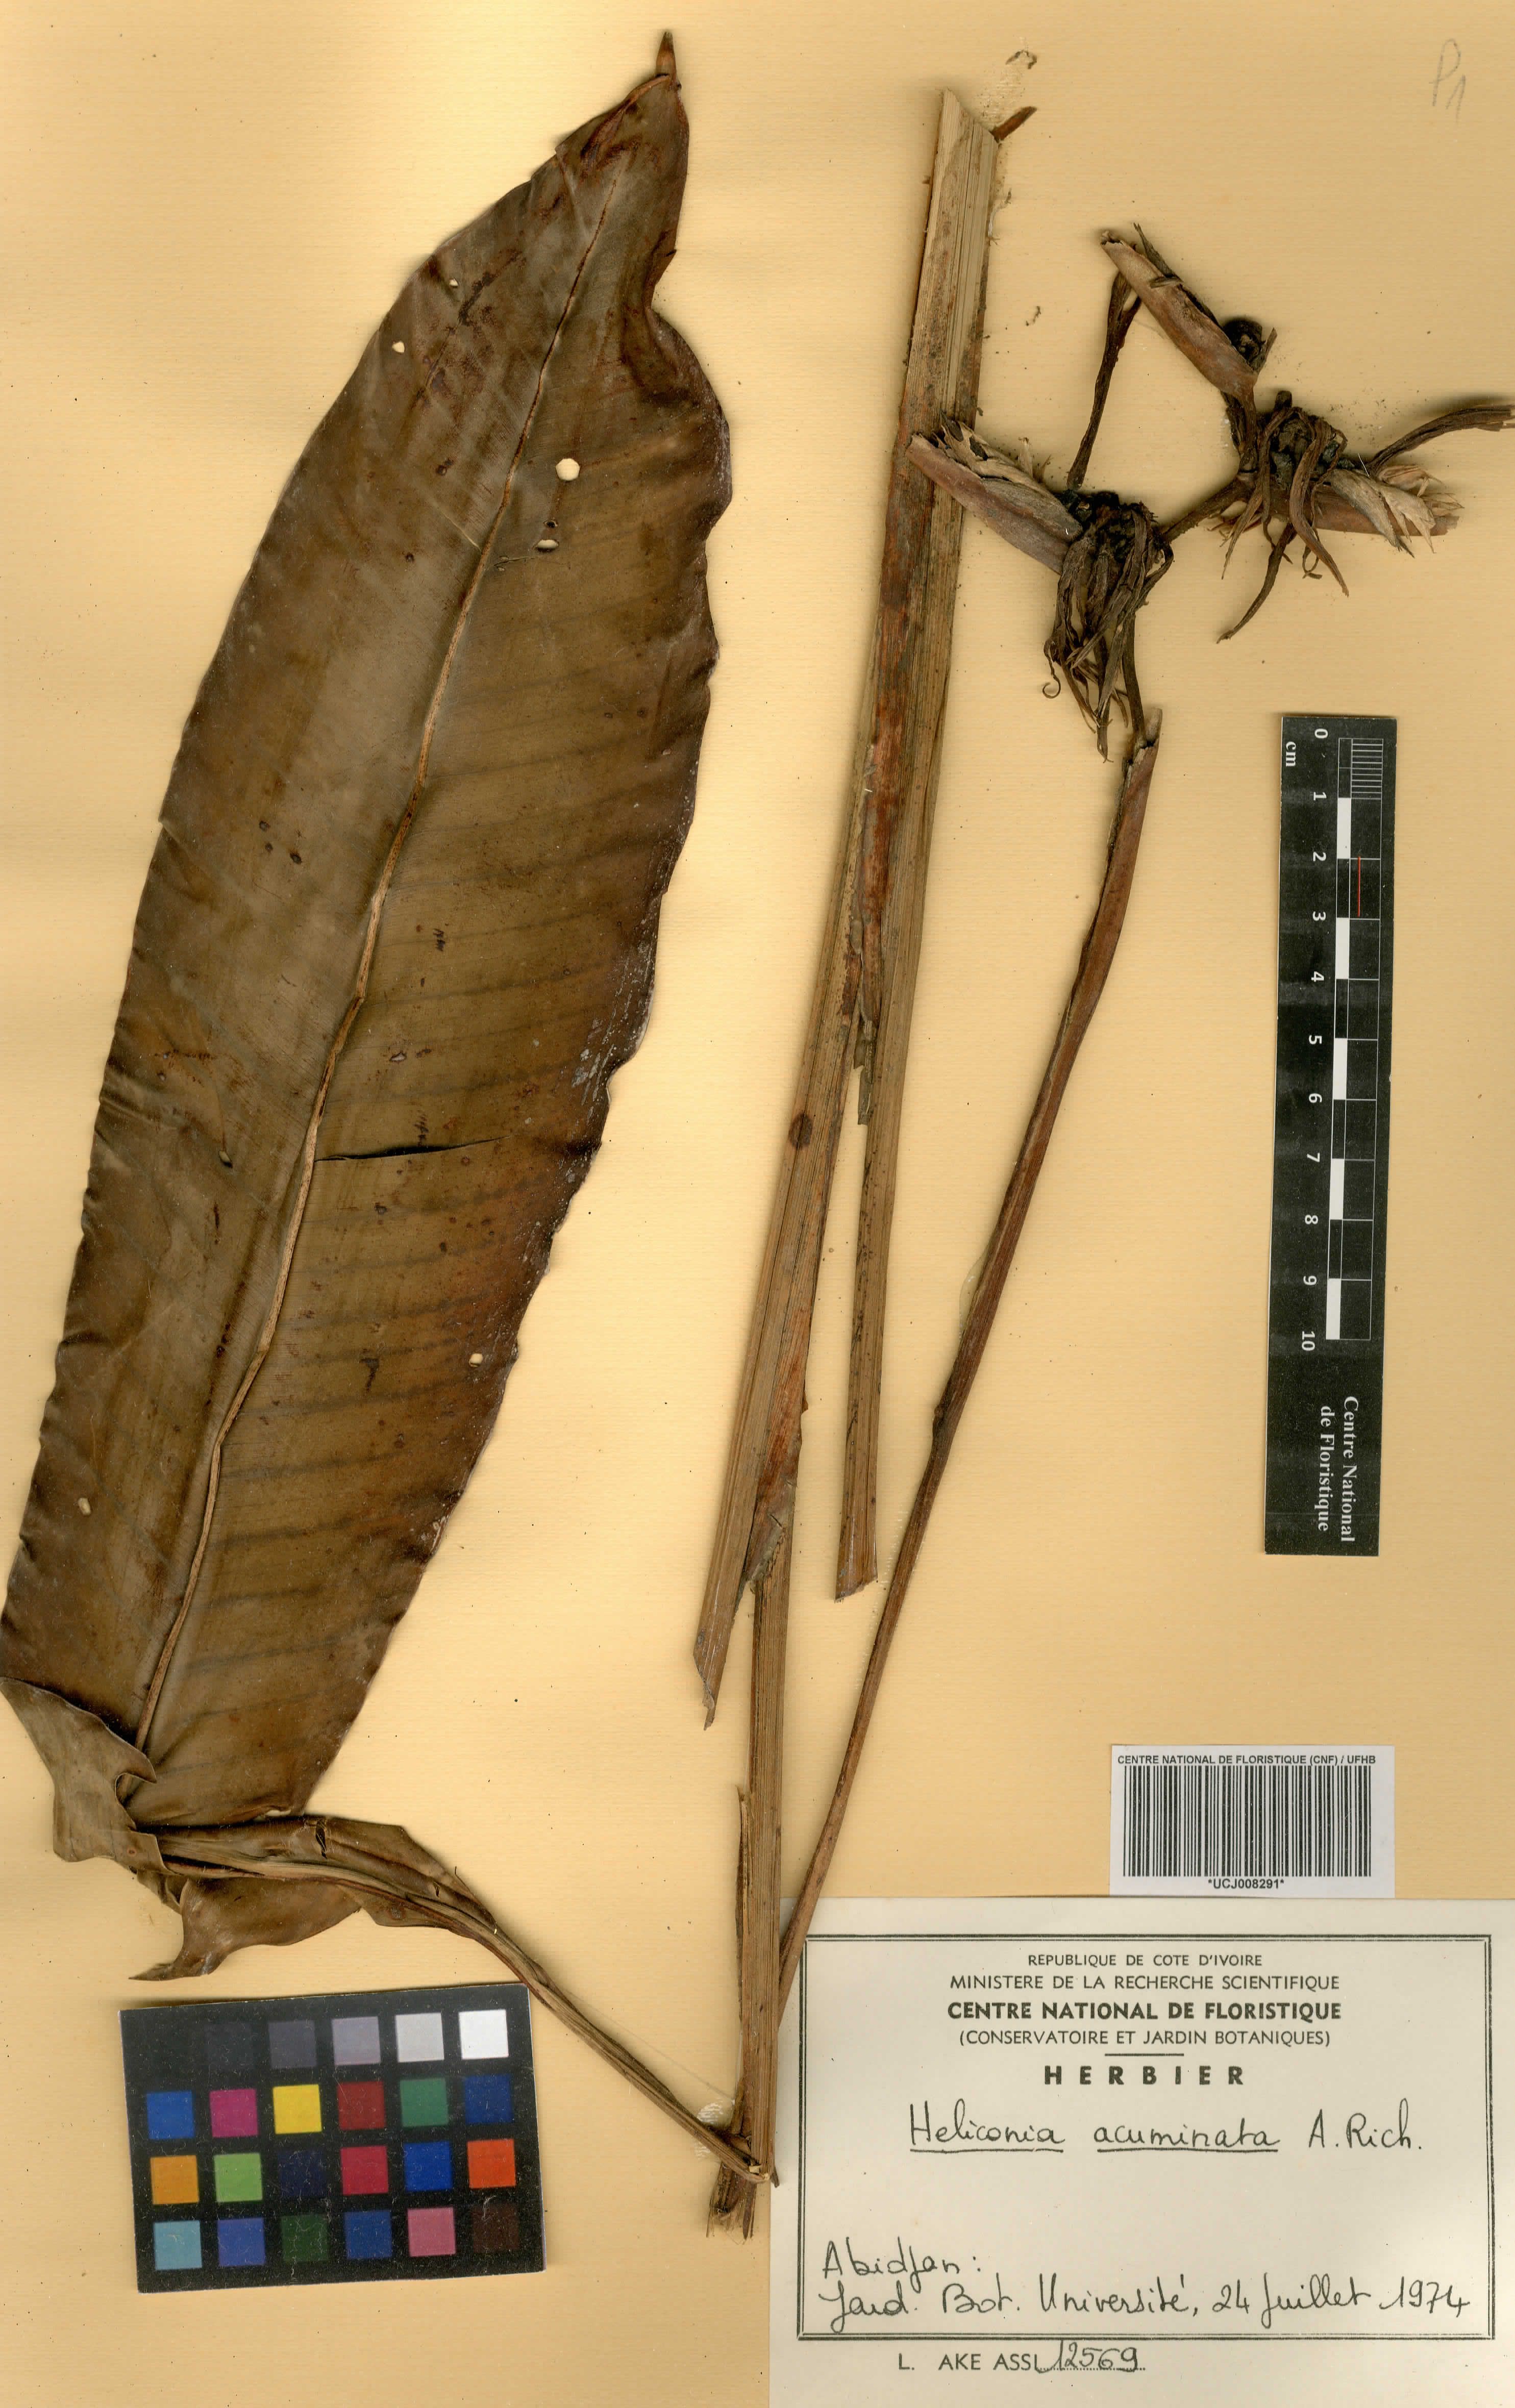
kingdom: Plantae
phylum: Tracheophyta
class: Liliopsida
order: Zingiberales
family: Heliconiaceae
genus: Heliconia
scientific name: Heliconia acuminata
